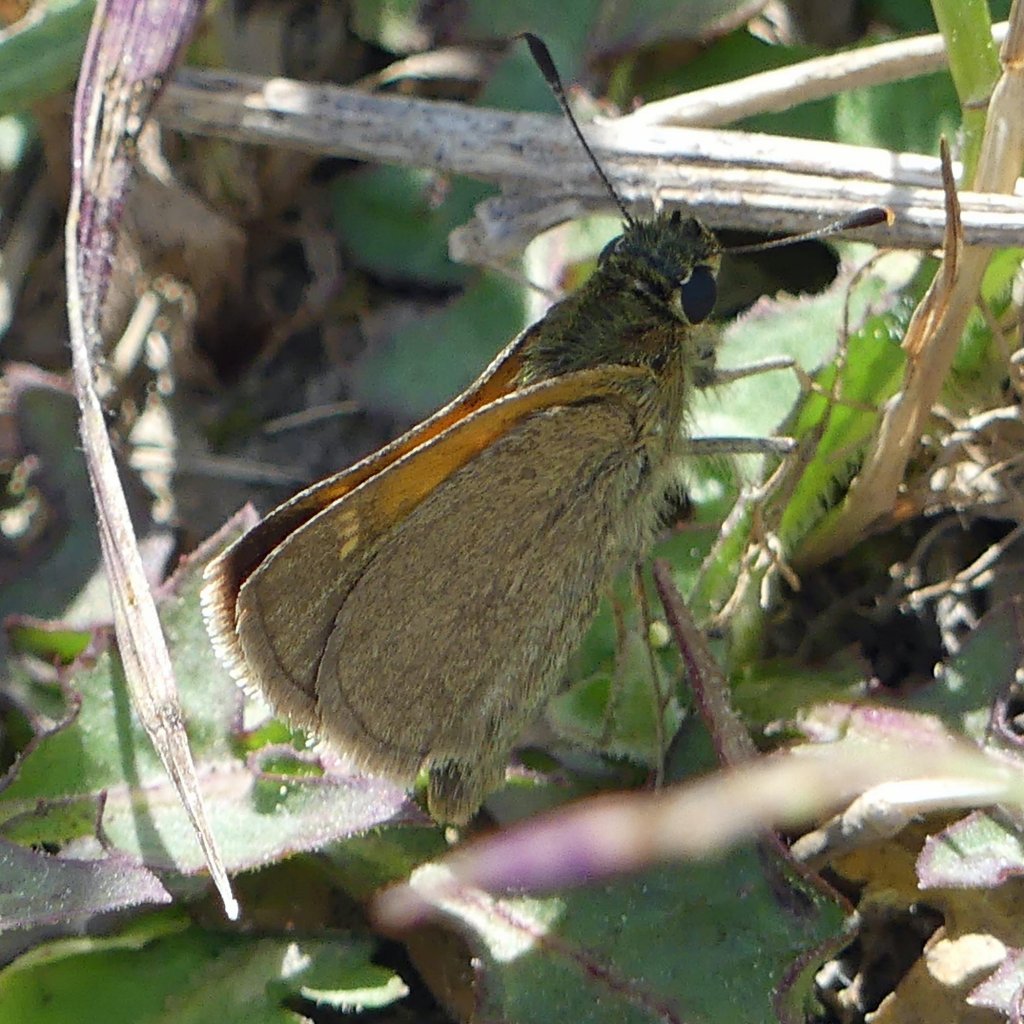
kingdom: Animalia
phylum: Arthropoda
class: Insecta
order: Lepidoptera
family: Hesperiidae
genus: Polites
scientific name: Polites themistocles
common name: Tawny-edged Skipper
